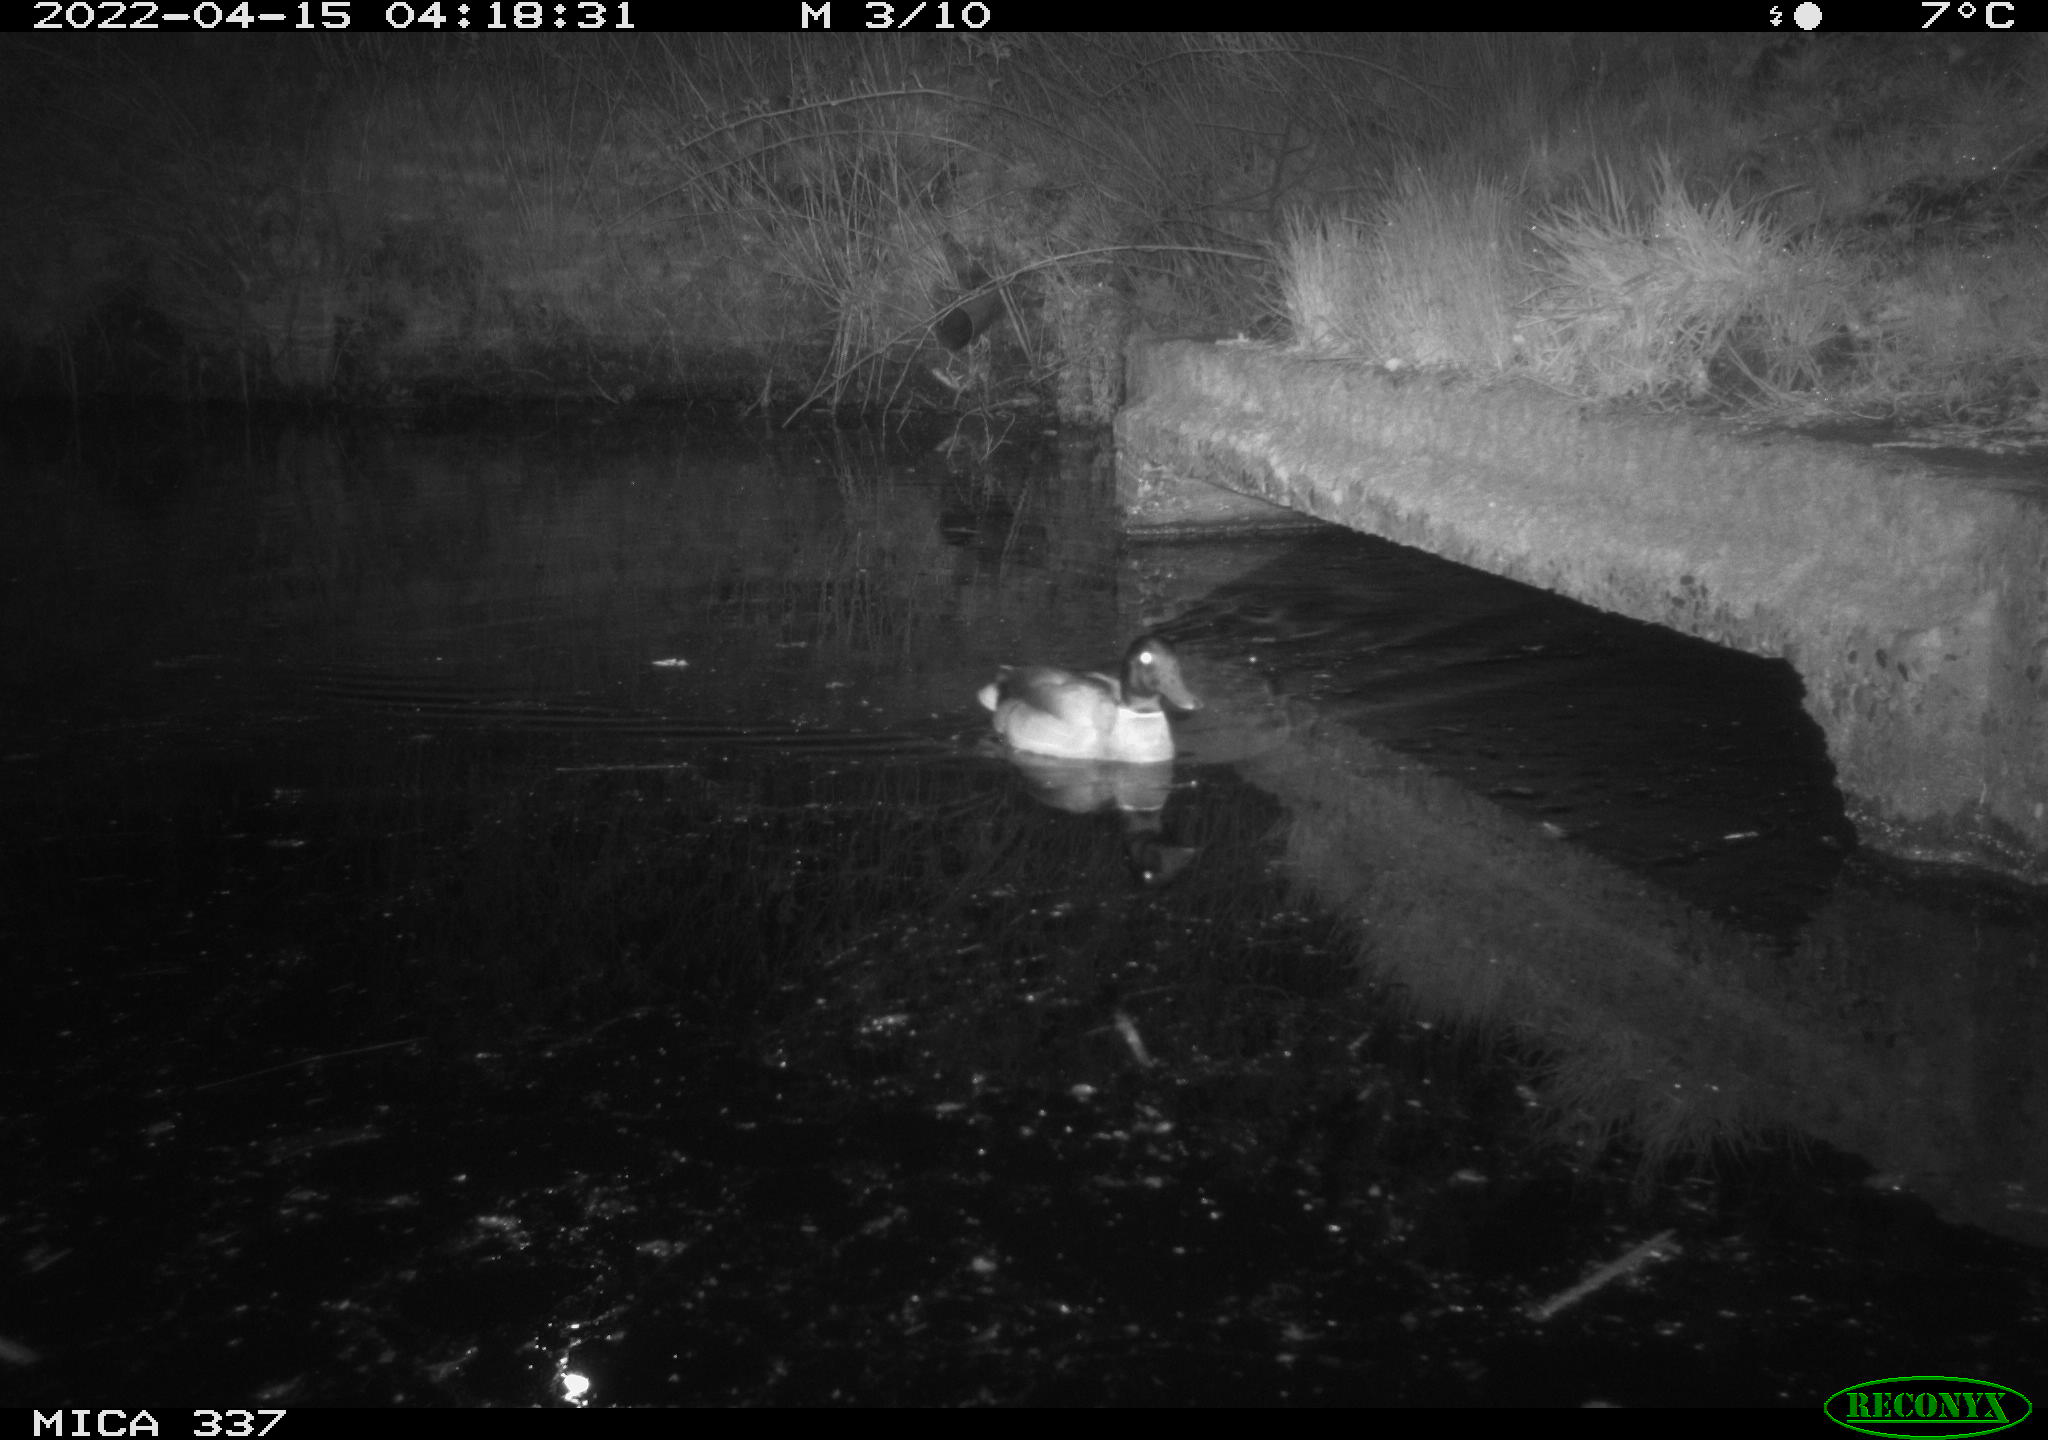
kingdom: Animalia
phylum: Chordata
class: Aves
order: Anseriformes
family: Anatidae
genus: Anas
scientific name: Anas platyrhynchos
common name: Mallard
